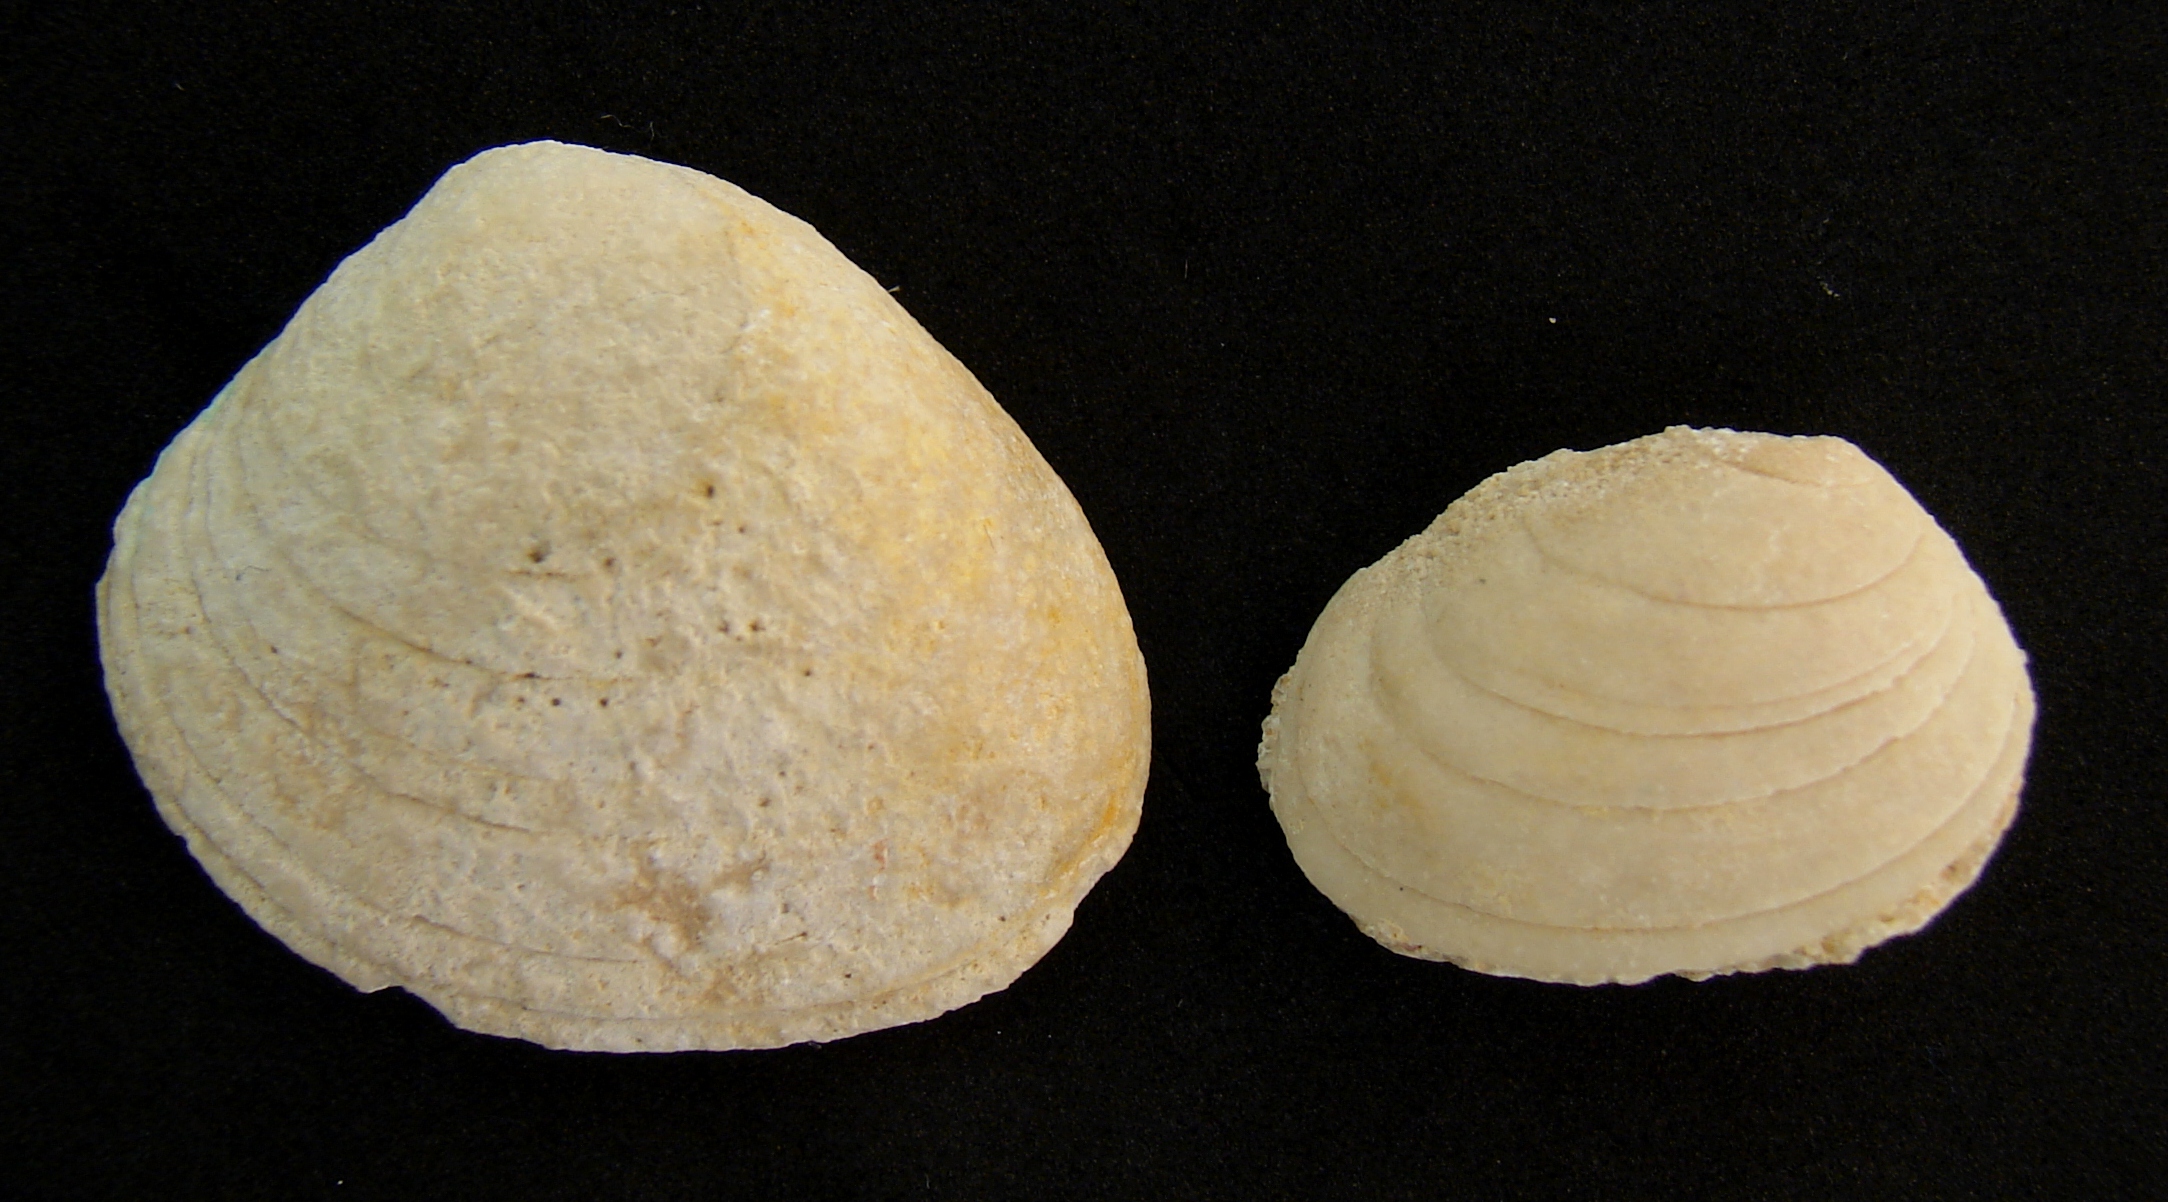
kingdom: Animalia
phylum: Mollusca
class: Bivalvia
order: Carditida
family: Cardiniidae
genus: Cardinia
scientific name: Cardinia
